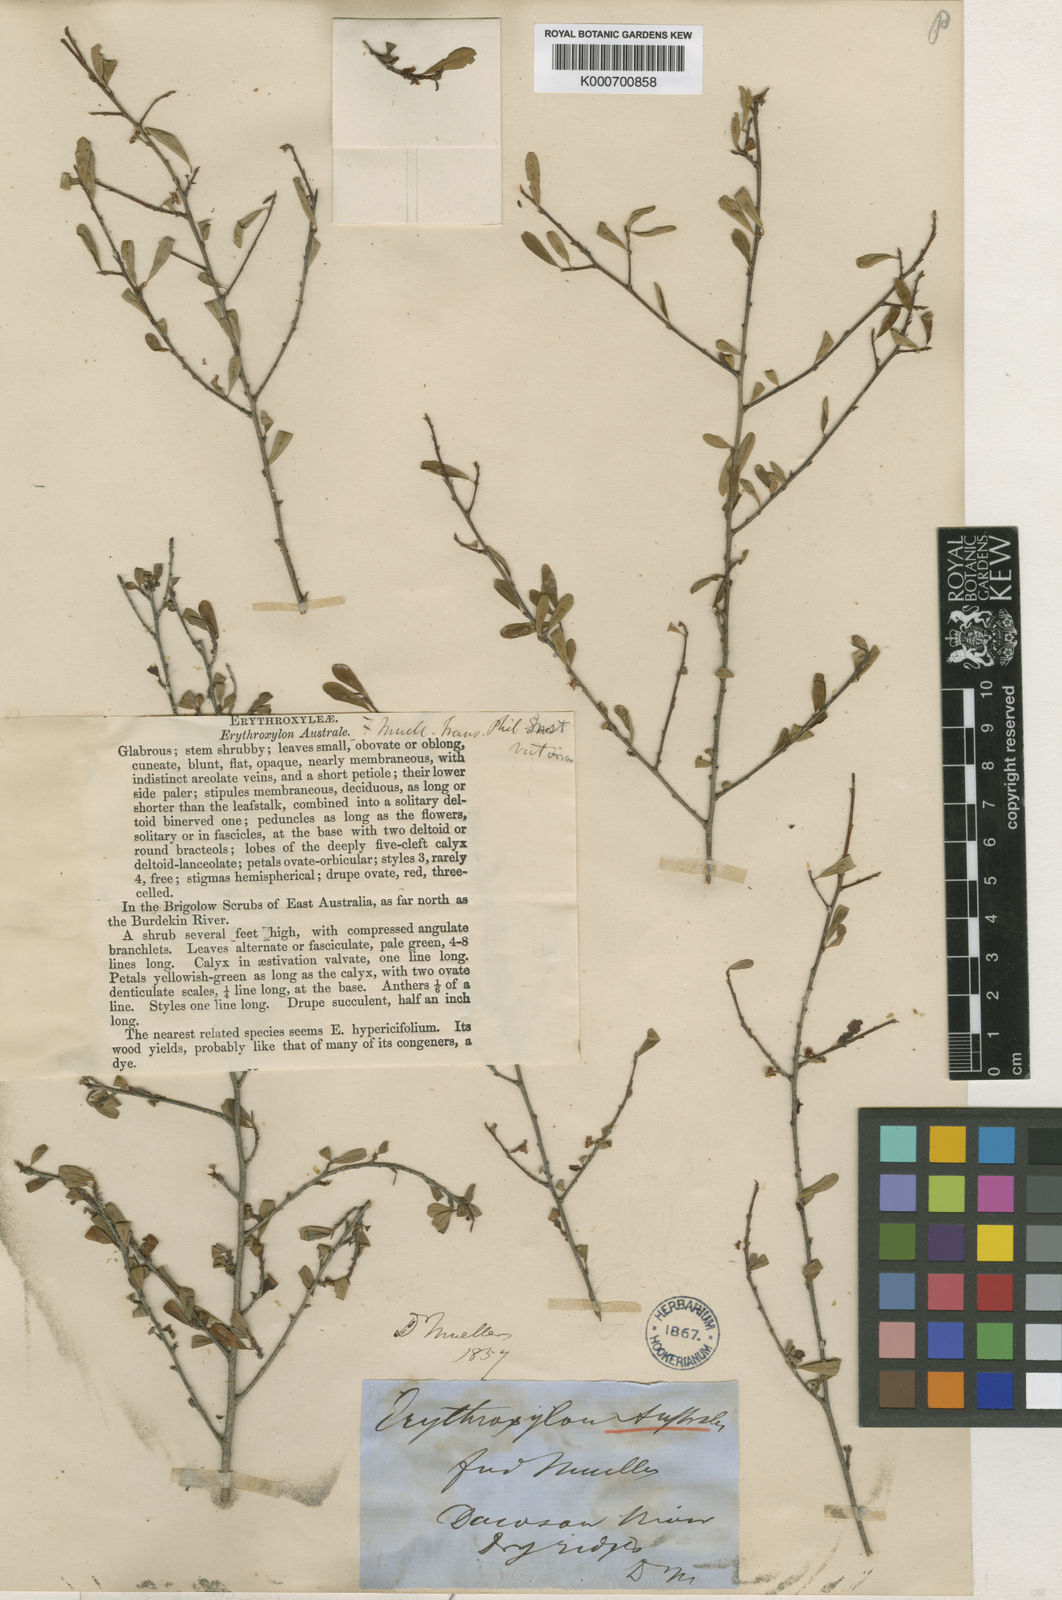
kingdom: Plantae
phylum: Tracheophyta
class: Magnoliopsida
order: Malpighiales
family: Erythroxylaceae
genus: Erythroxylum
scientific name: Erythroxylum australe
